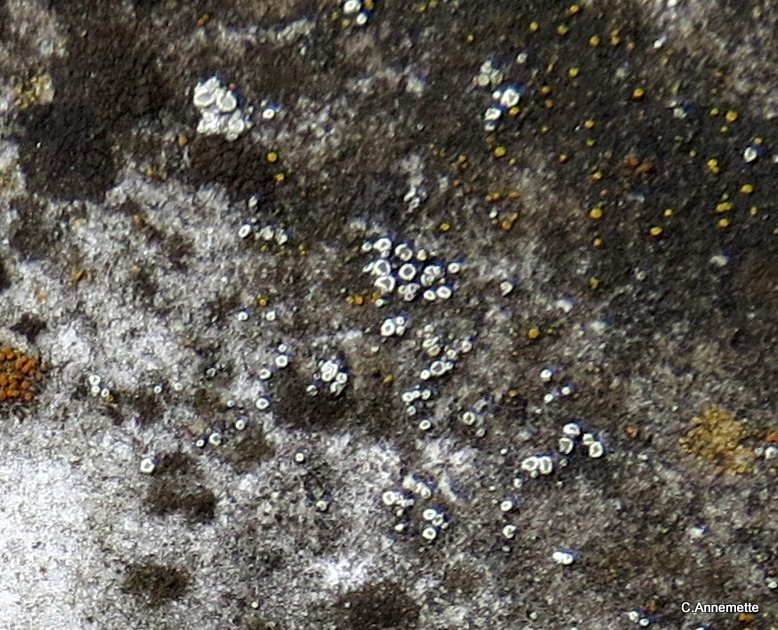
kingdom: Fungi
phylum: Ascomycota
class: Lecanoromycetes
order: Lecanorales
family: Lecanoraceae
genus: Polyozosia
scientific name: Polyozosia dispersa
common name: spredt kantskivelav
